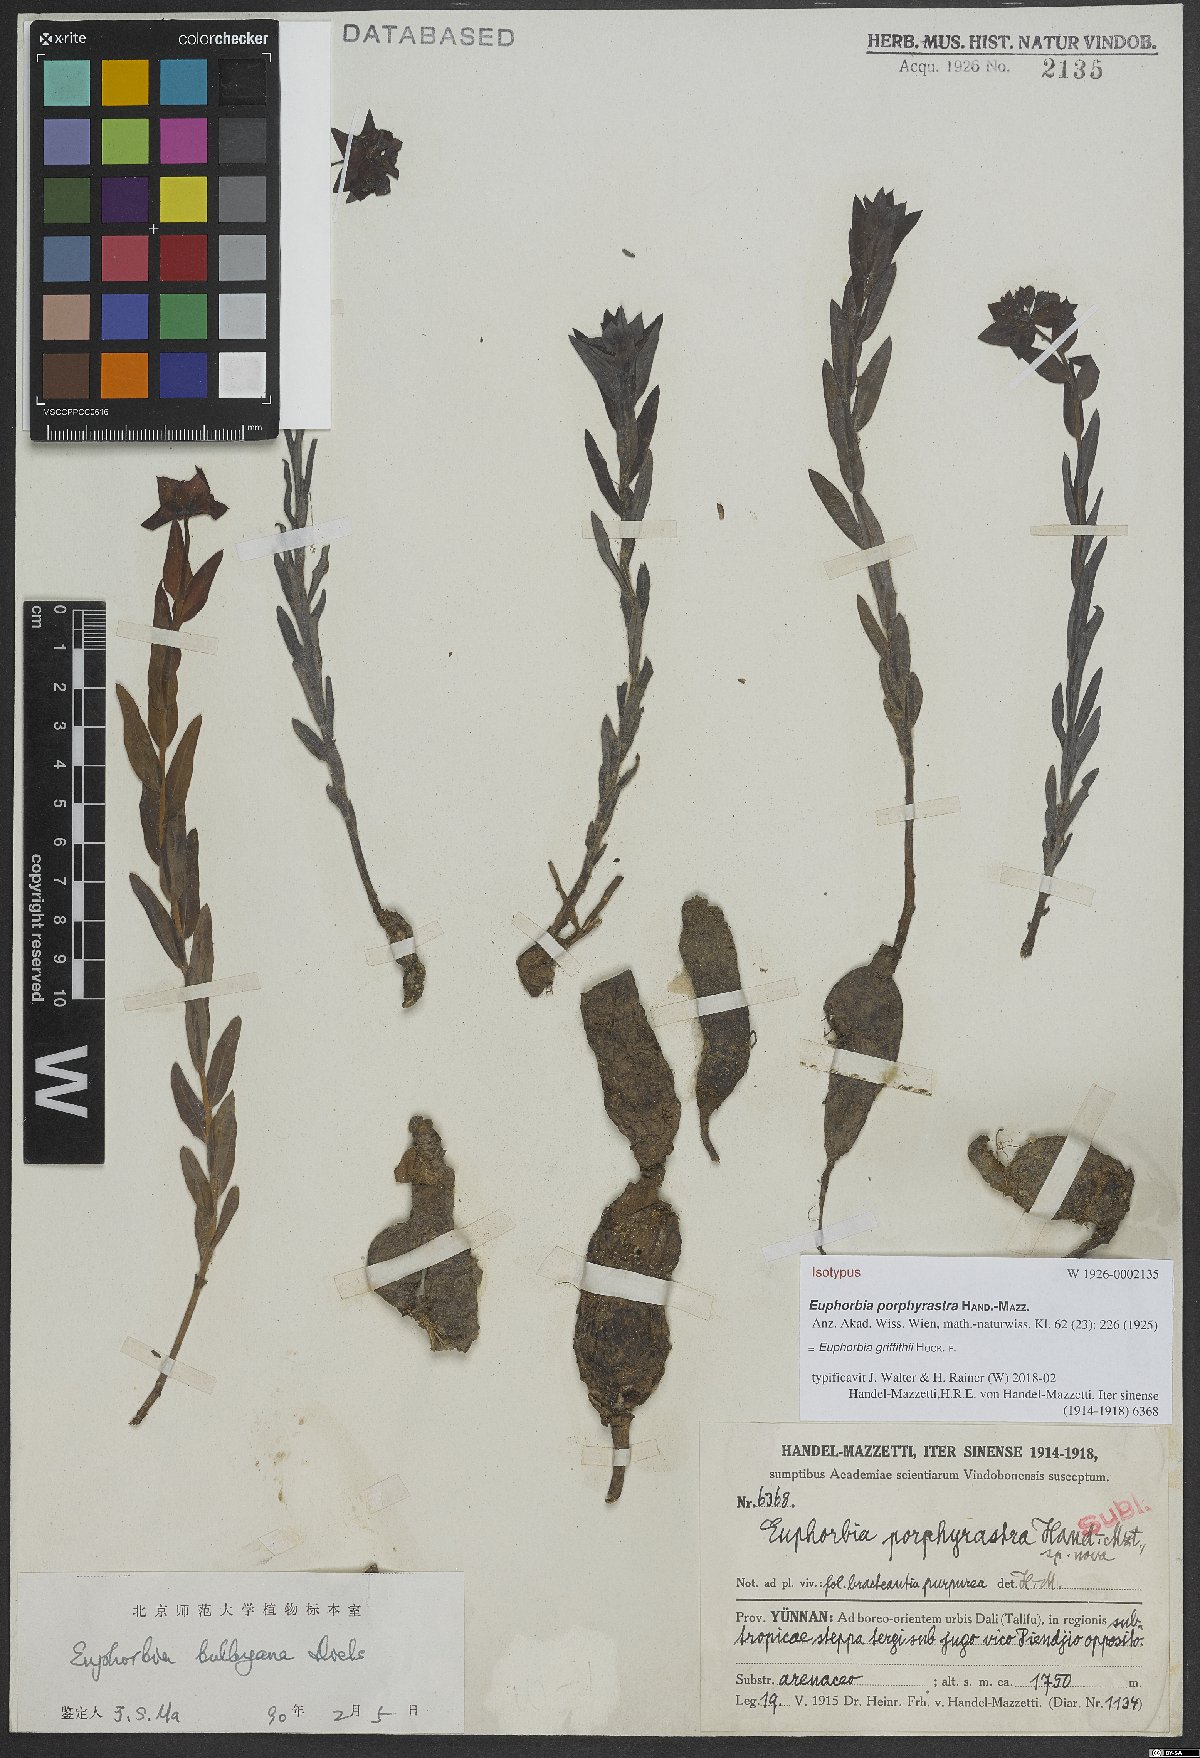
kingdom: Plantae
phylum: Tracheophyta
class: Magnoliopsida
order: Malpighiales
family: Euphorbiaceae
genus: Euphorbia
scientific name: Euphorbia griffithii
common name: Griffith's spurge
